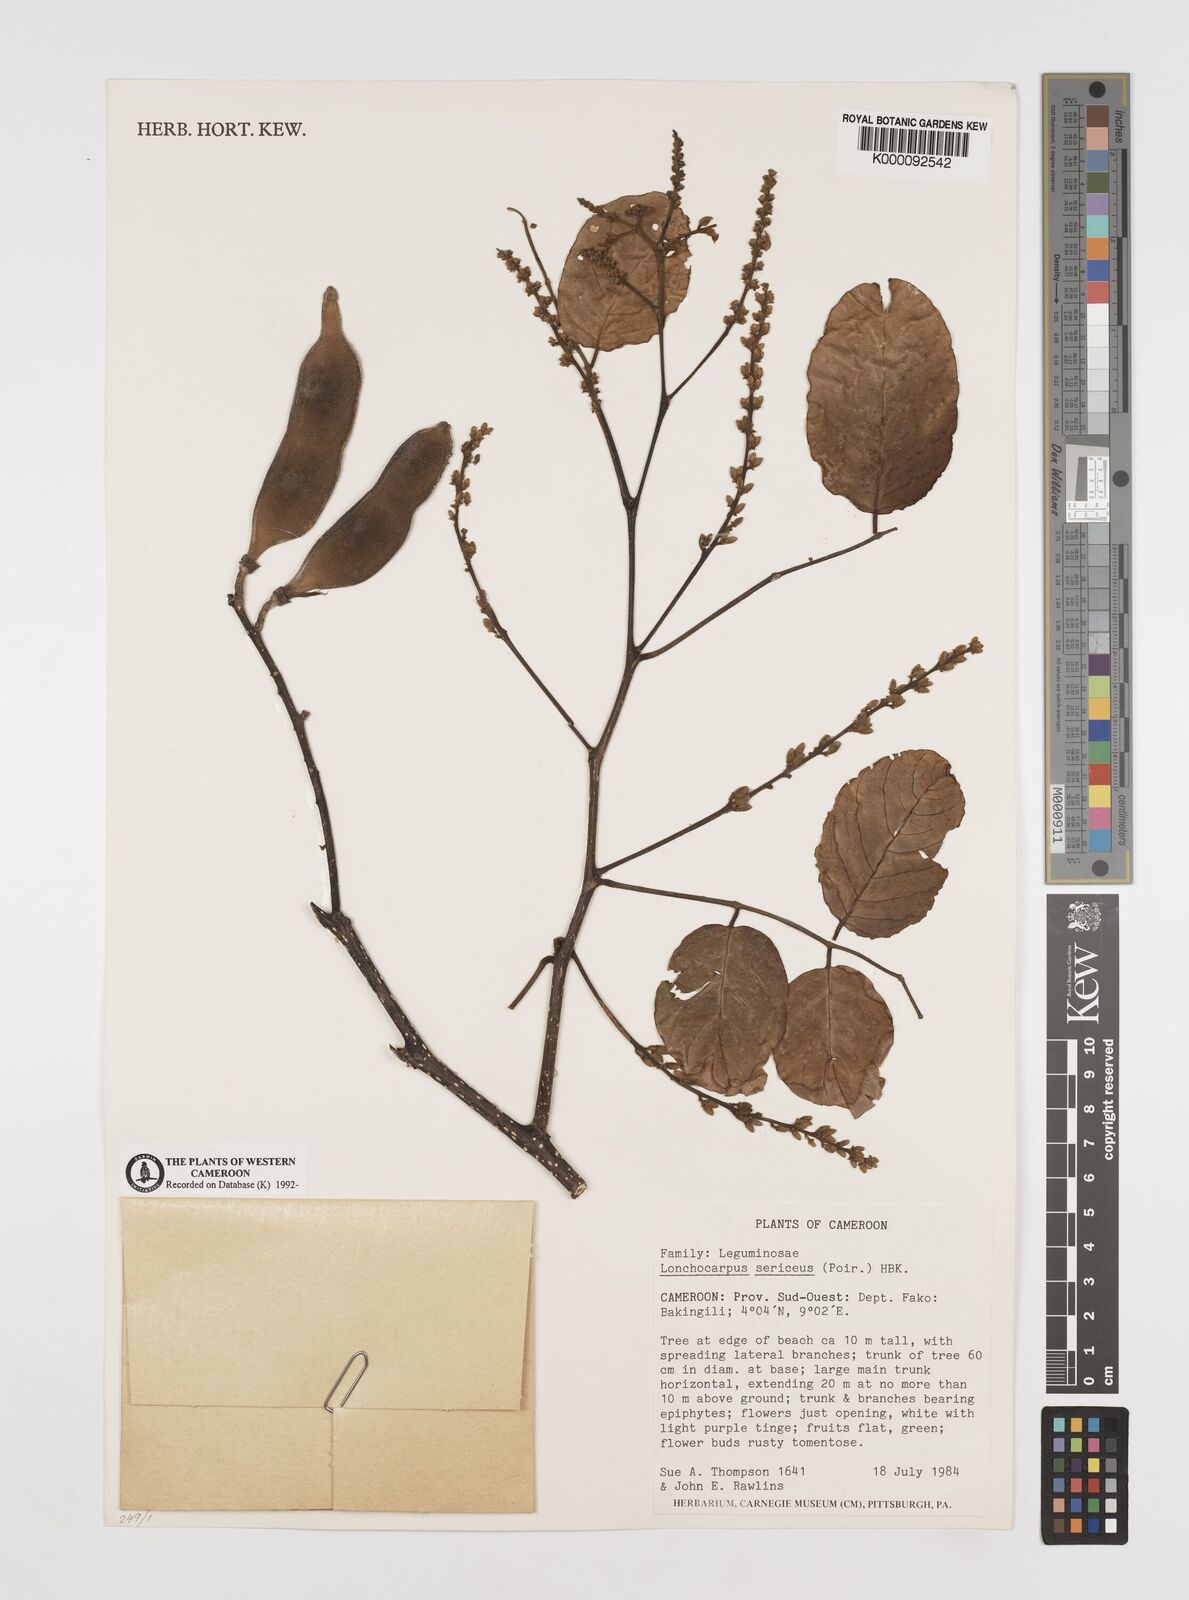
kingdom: Plantae
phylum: Tracheophyta
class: Magnoliopsida
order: Fabales
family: Fabaceae
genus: Lonchocarpus
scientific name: Lonchocarpus
